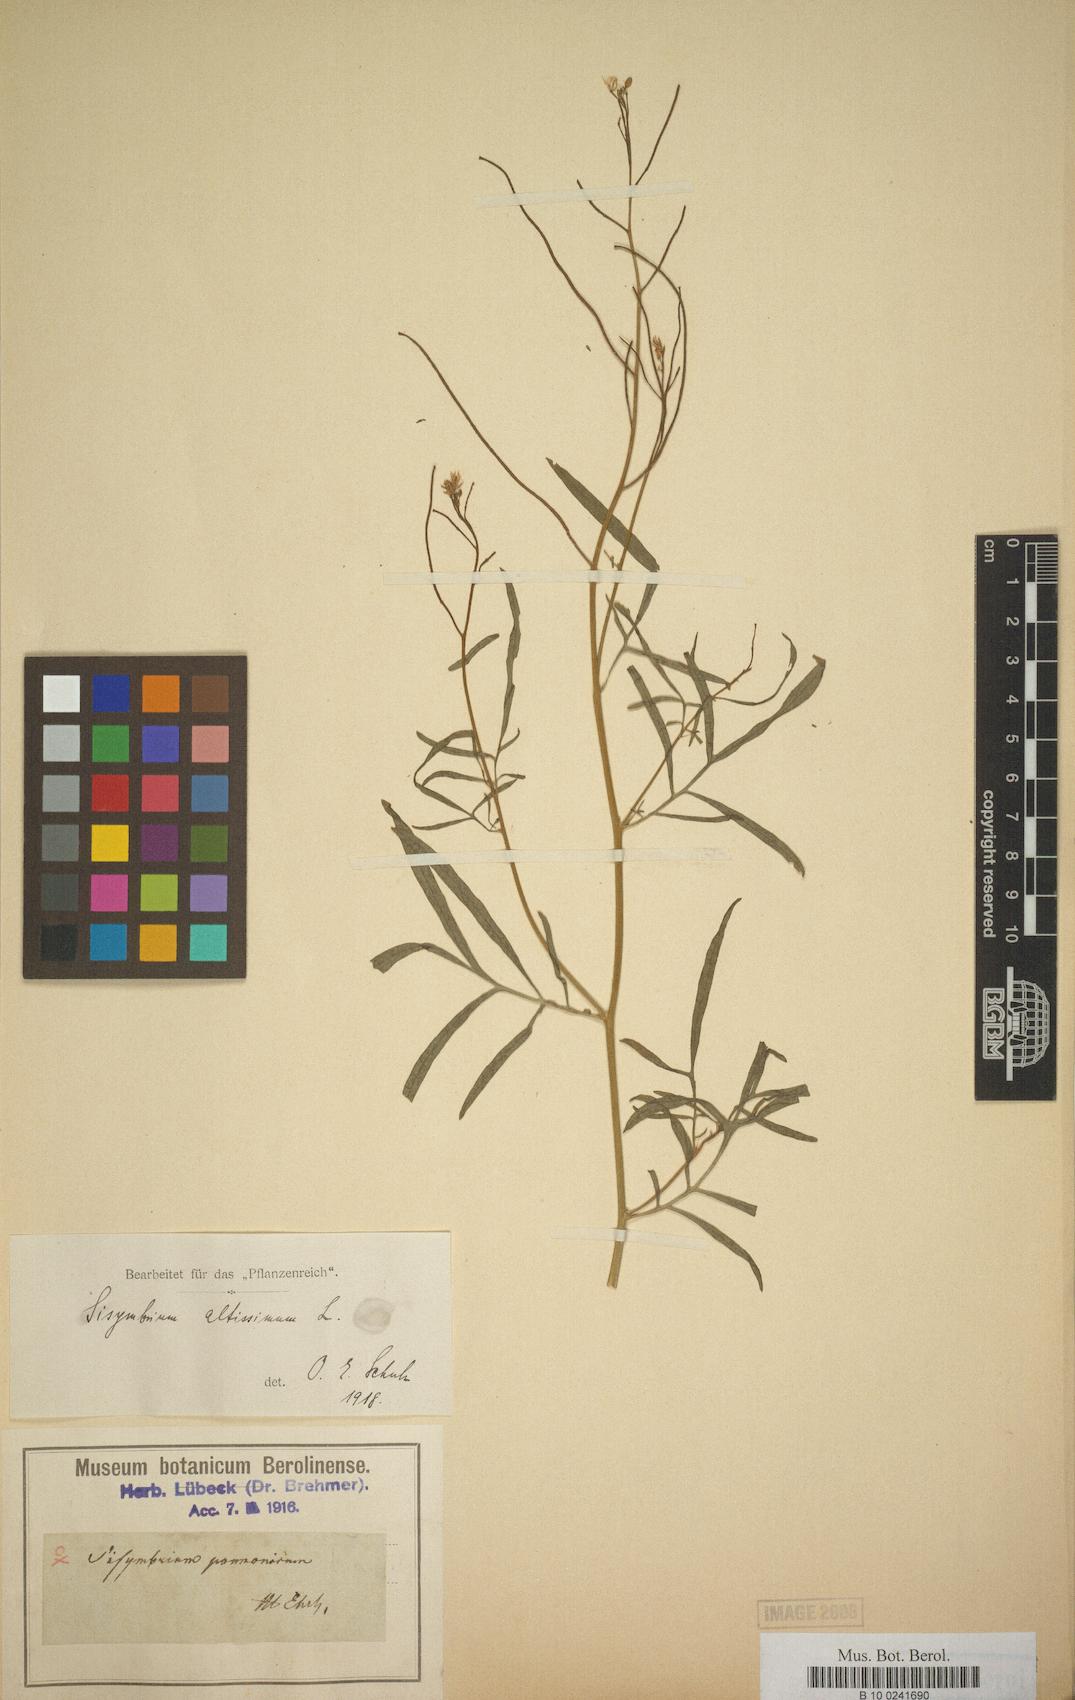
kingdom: Plantae
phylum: Tracheophyta
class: Magnoliopsida
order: Brassicales
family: Brassicaceae
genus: Sisymbrium
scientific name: Sisymbrium altissimum
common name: Tall rocket
